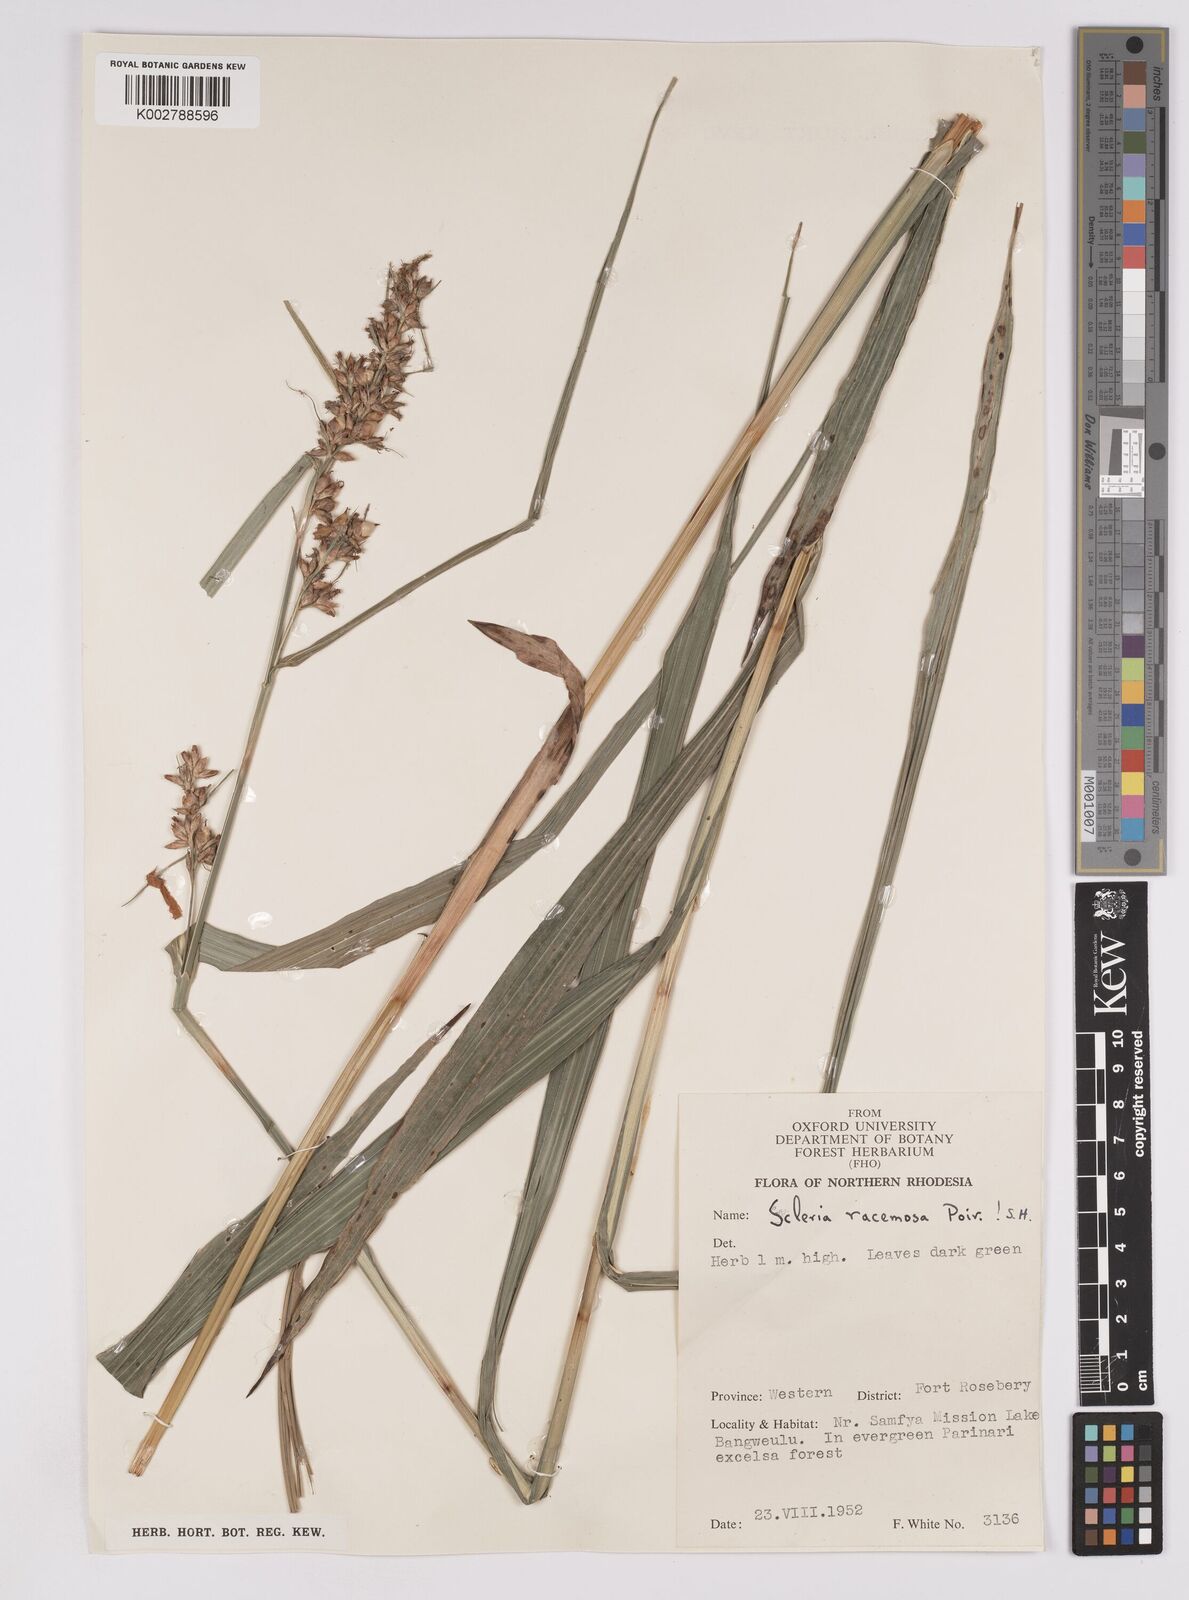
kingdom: Plantae
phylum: Tracheophyta
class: Liliopsida
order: Poales
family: Cyperaceae
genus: Scleria
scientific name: Scleria racemosa
